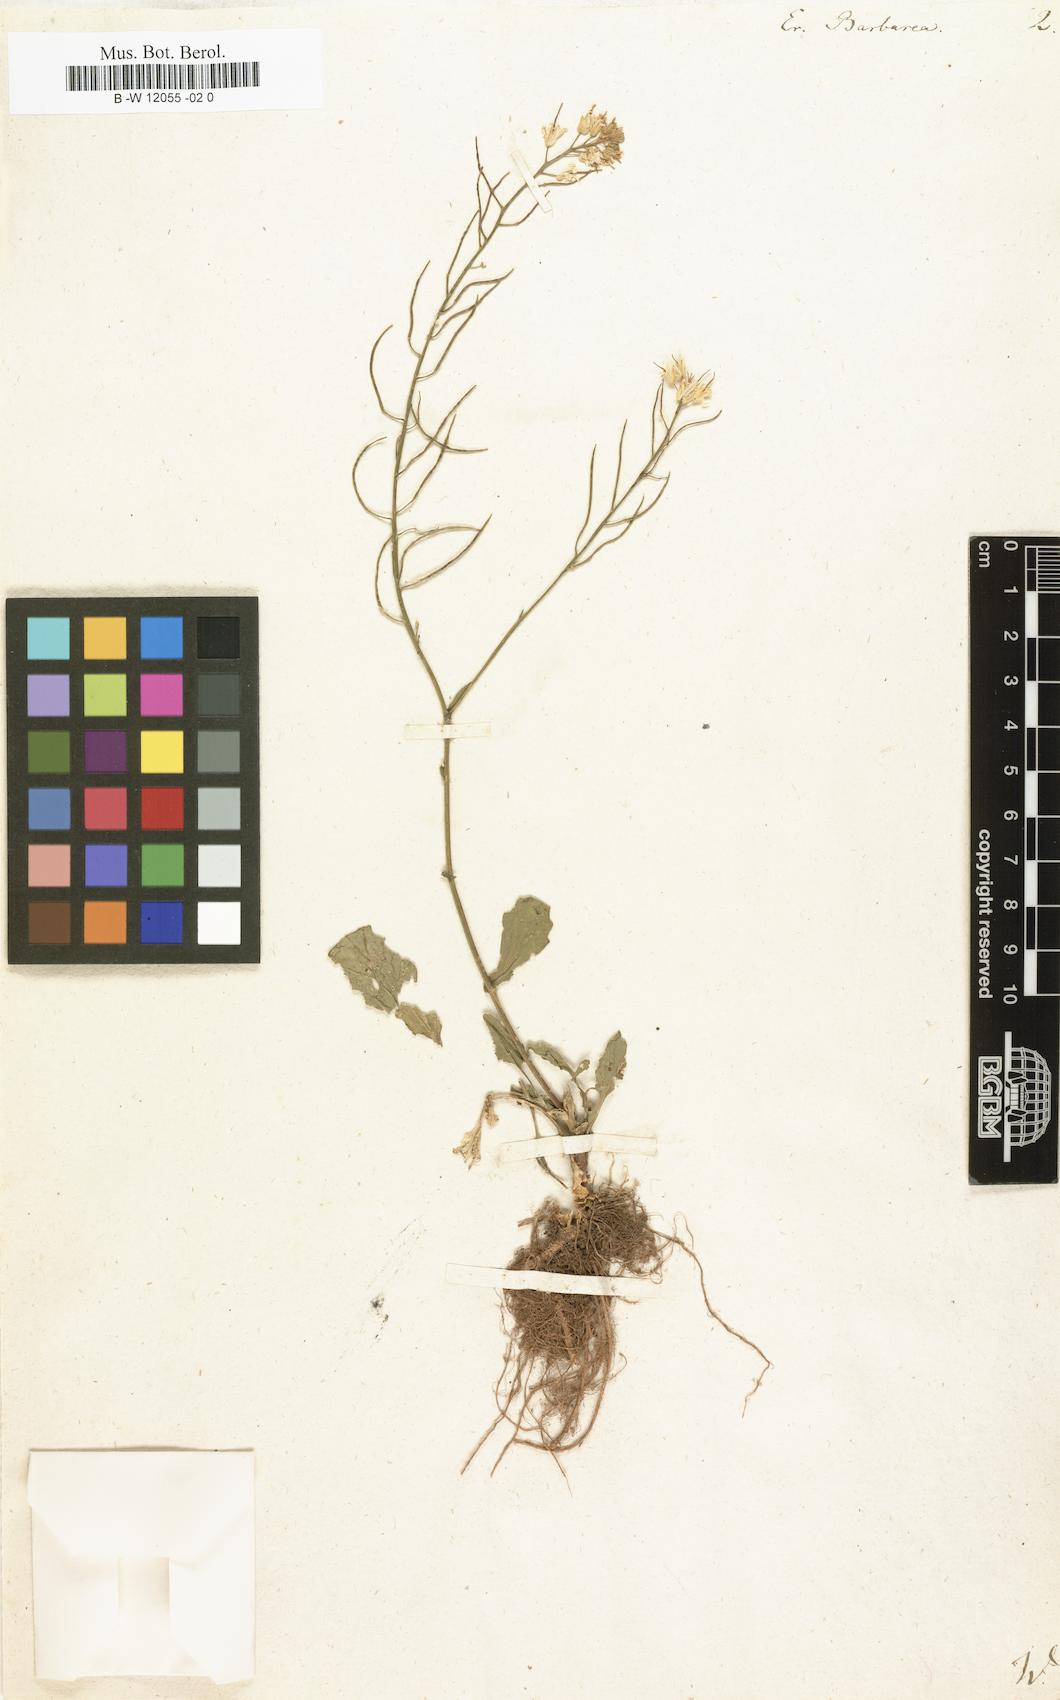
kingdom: Plantae
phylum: Tracheophyta
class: Magnoliopsida
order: Brassicales
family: Brassicaceae
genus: Erysimum
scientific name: Erysimum barbarea
